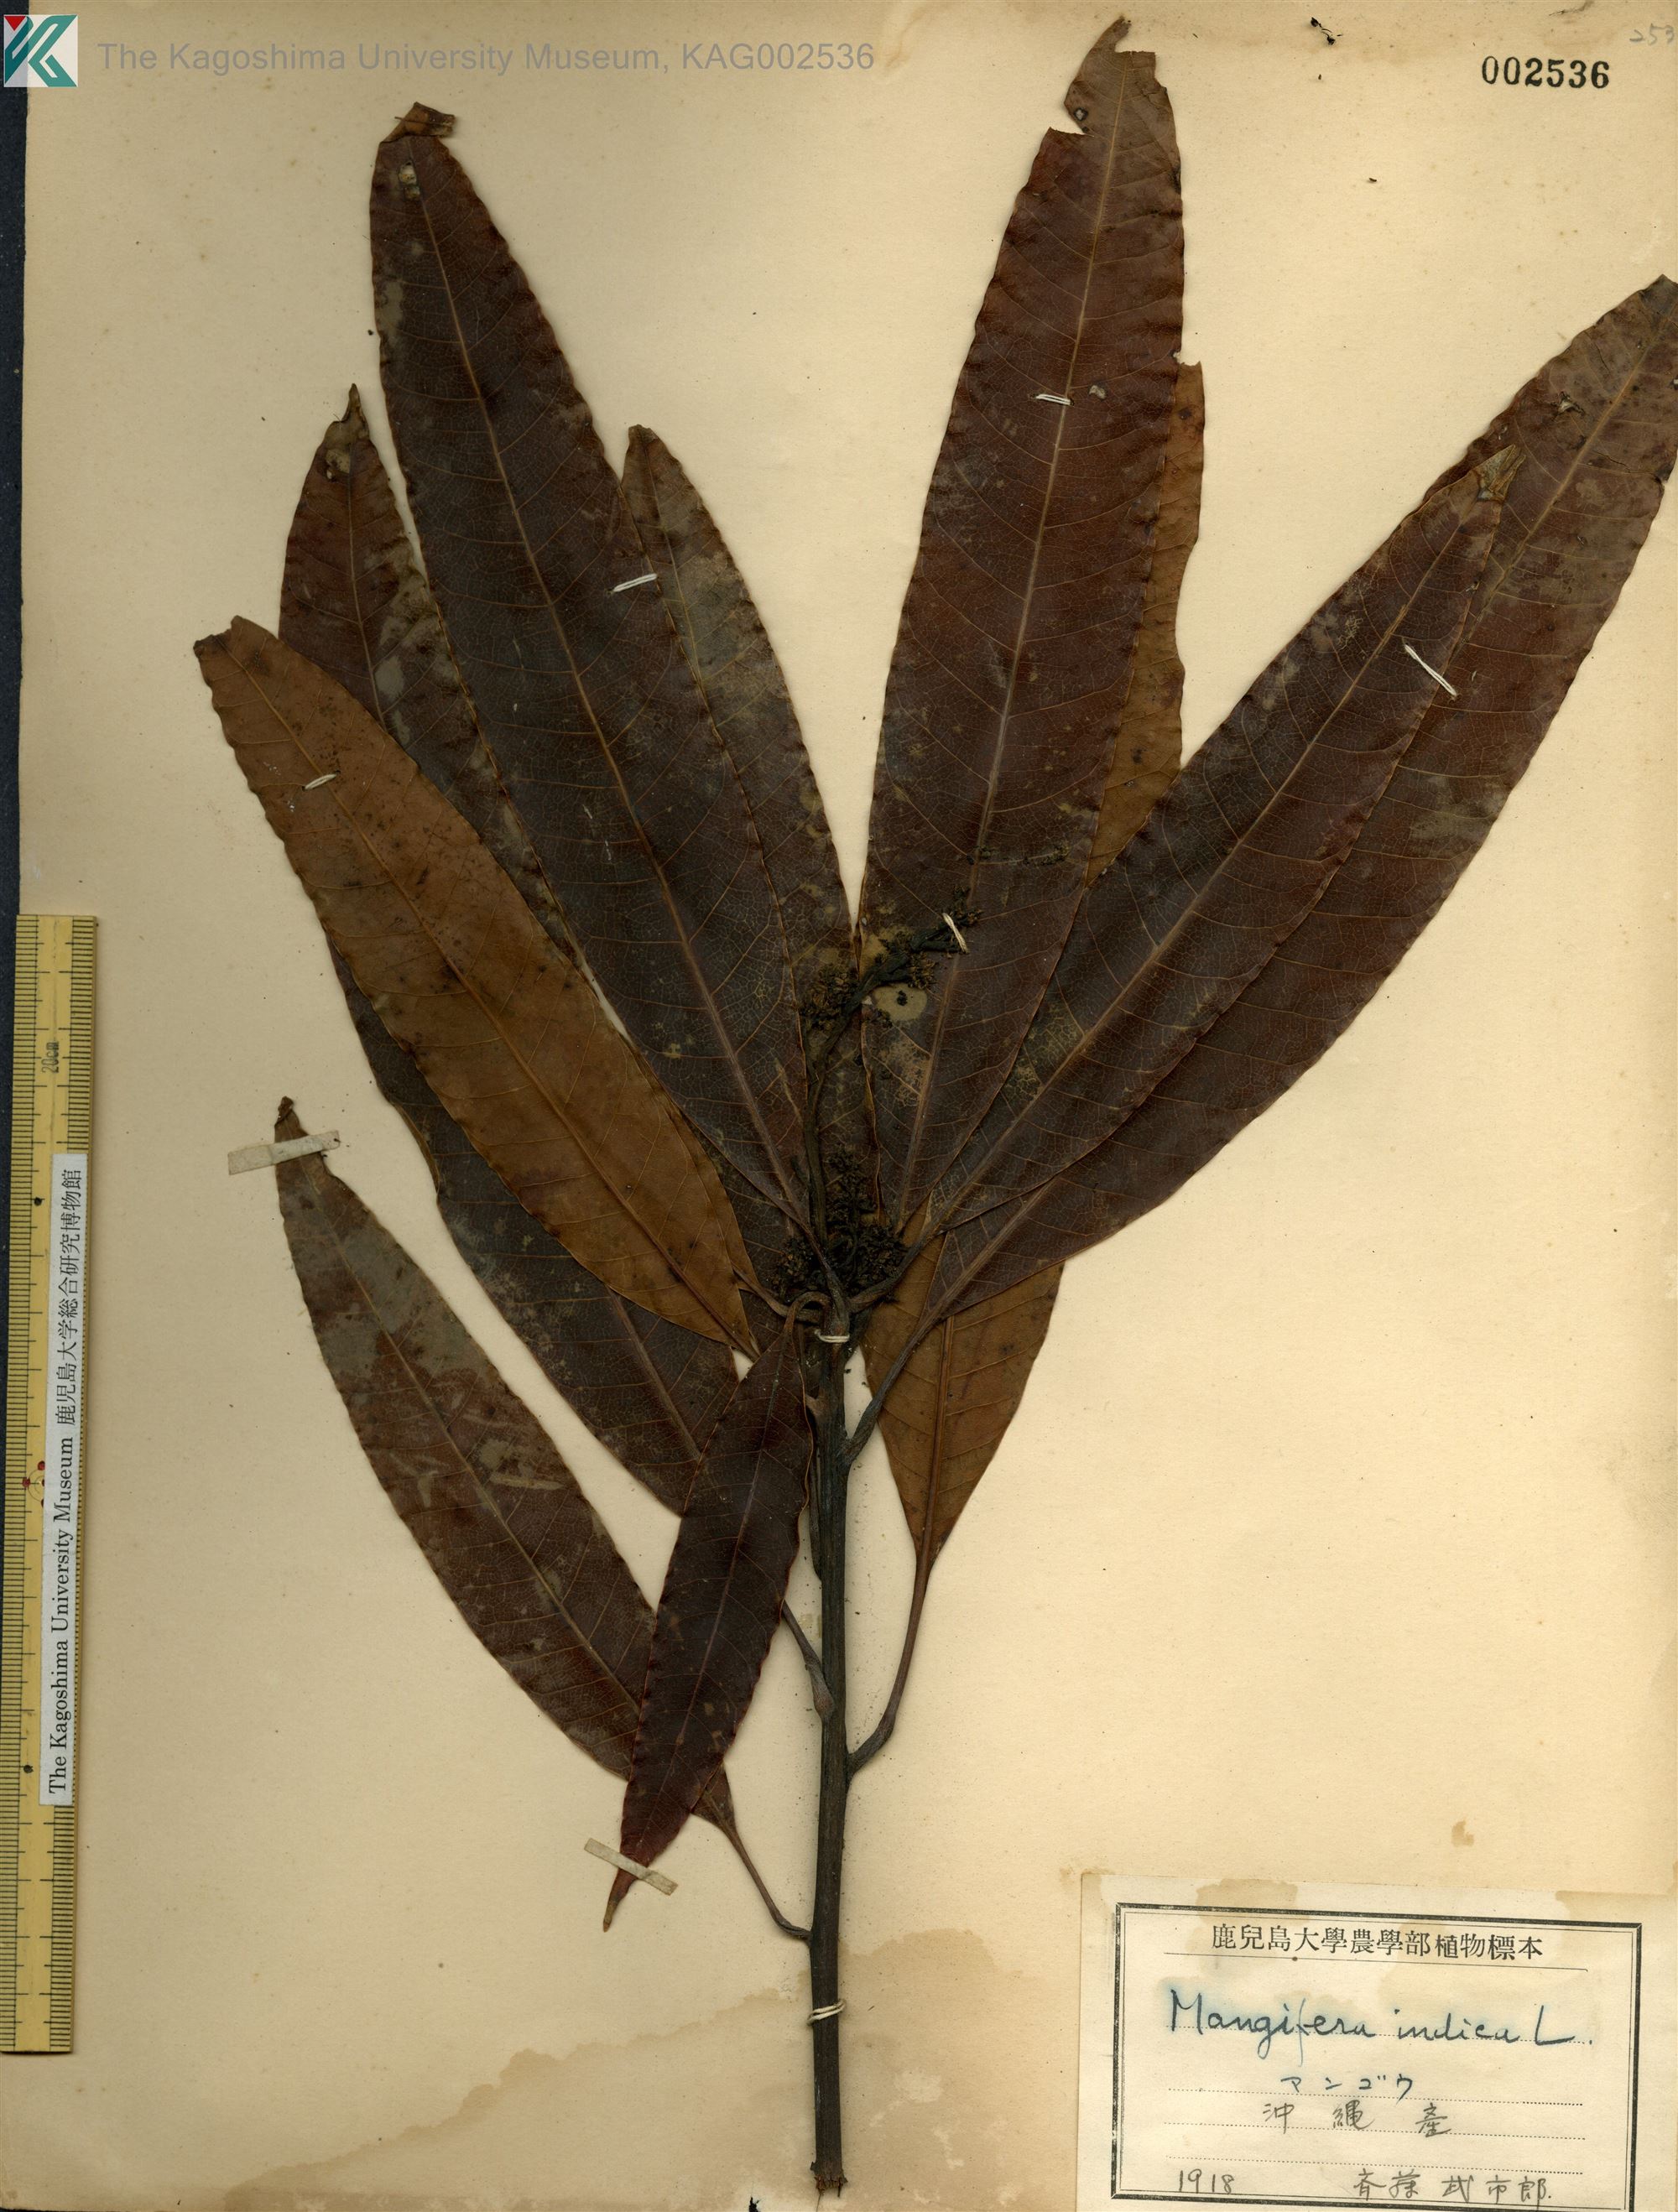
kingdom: Plantae
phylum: Tracheophyta
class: Magnoliopsida
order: Sapindales
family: Anacardiaceae
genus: Mangifera
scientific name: Mangifera indica
